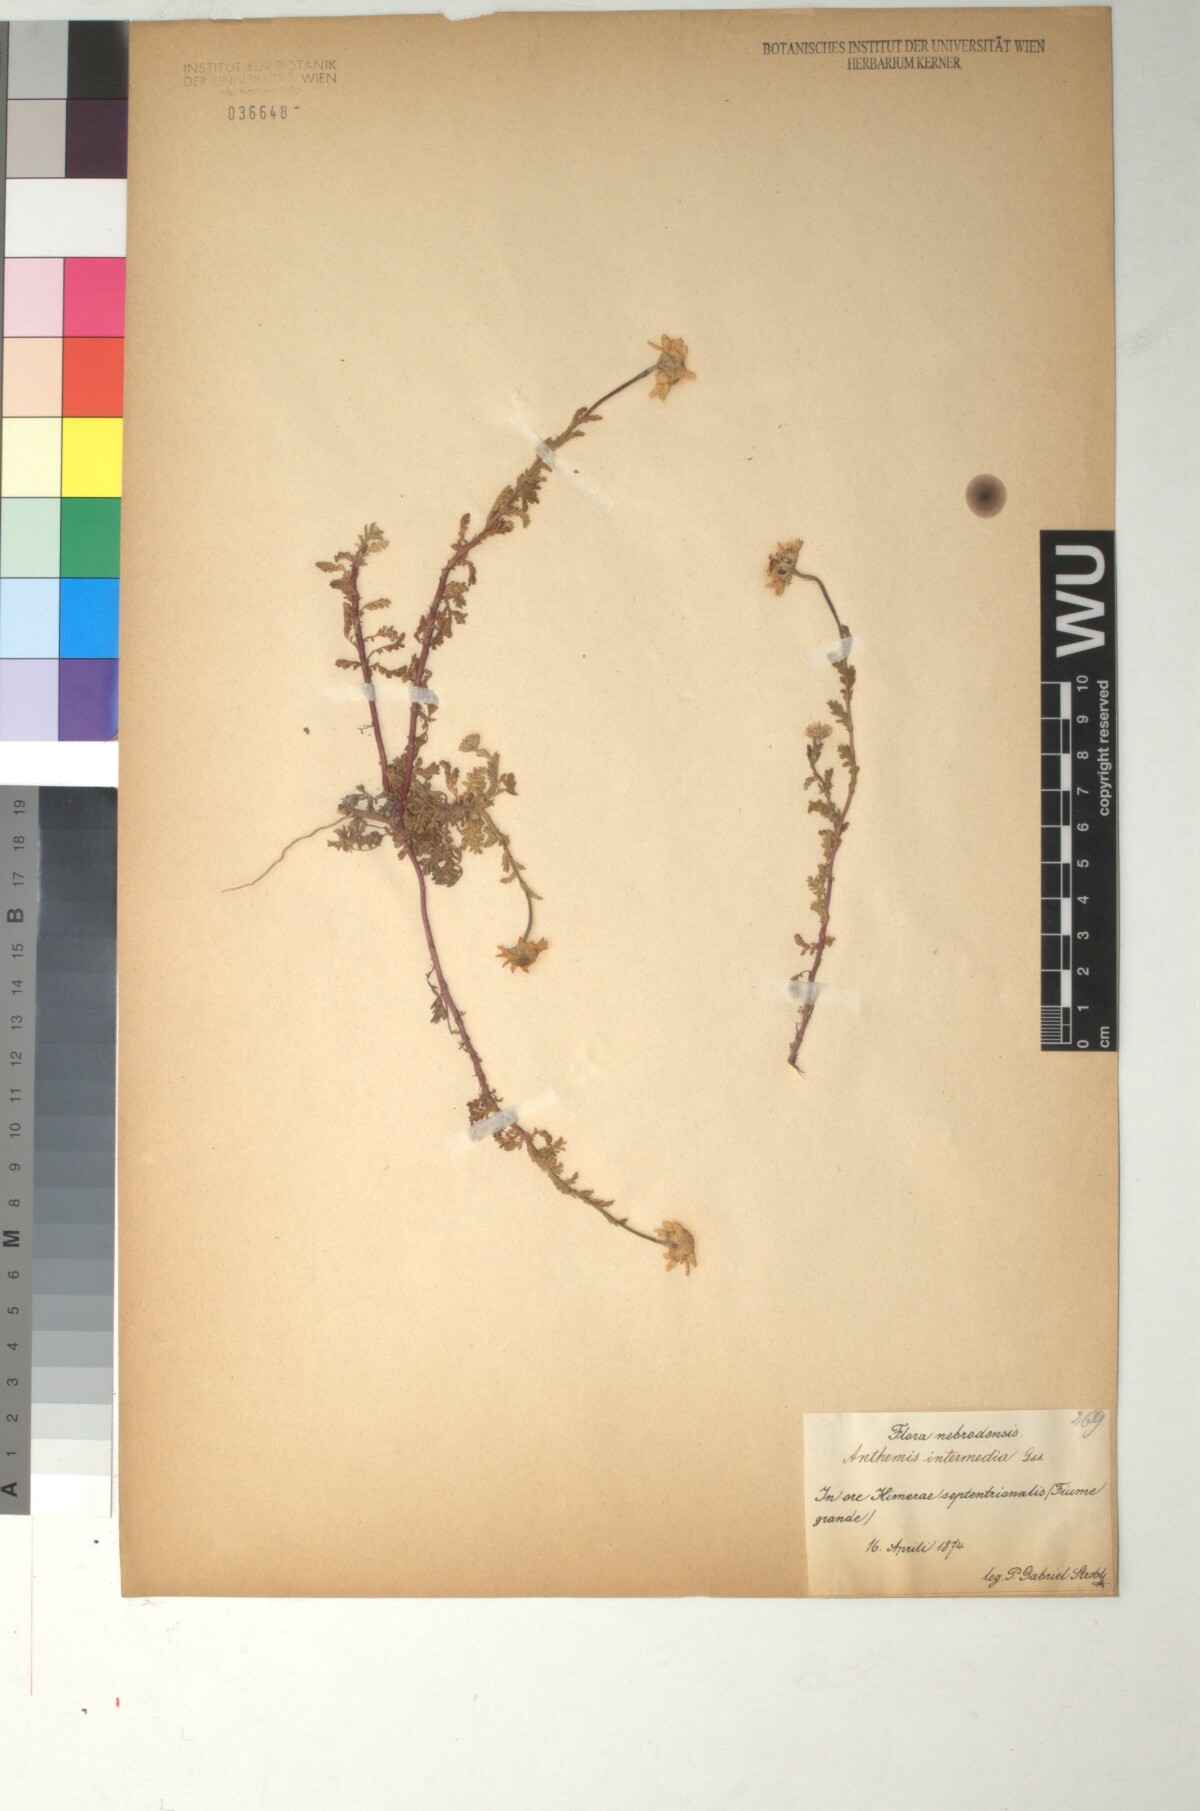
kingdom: Plantae
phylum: Tracheophyta
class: Magnoliopsida
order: Asterales
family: Asteraceae
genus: Anthemis
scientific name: Anthemis secundiramea
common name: Prostrate chamomile
